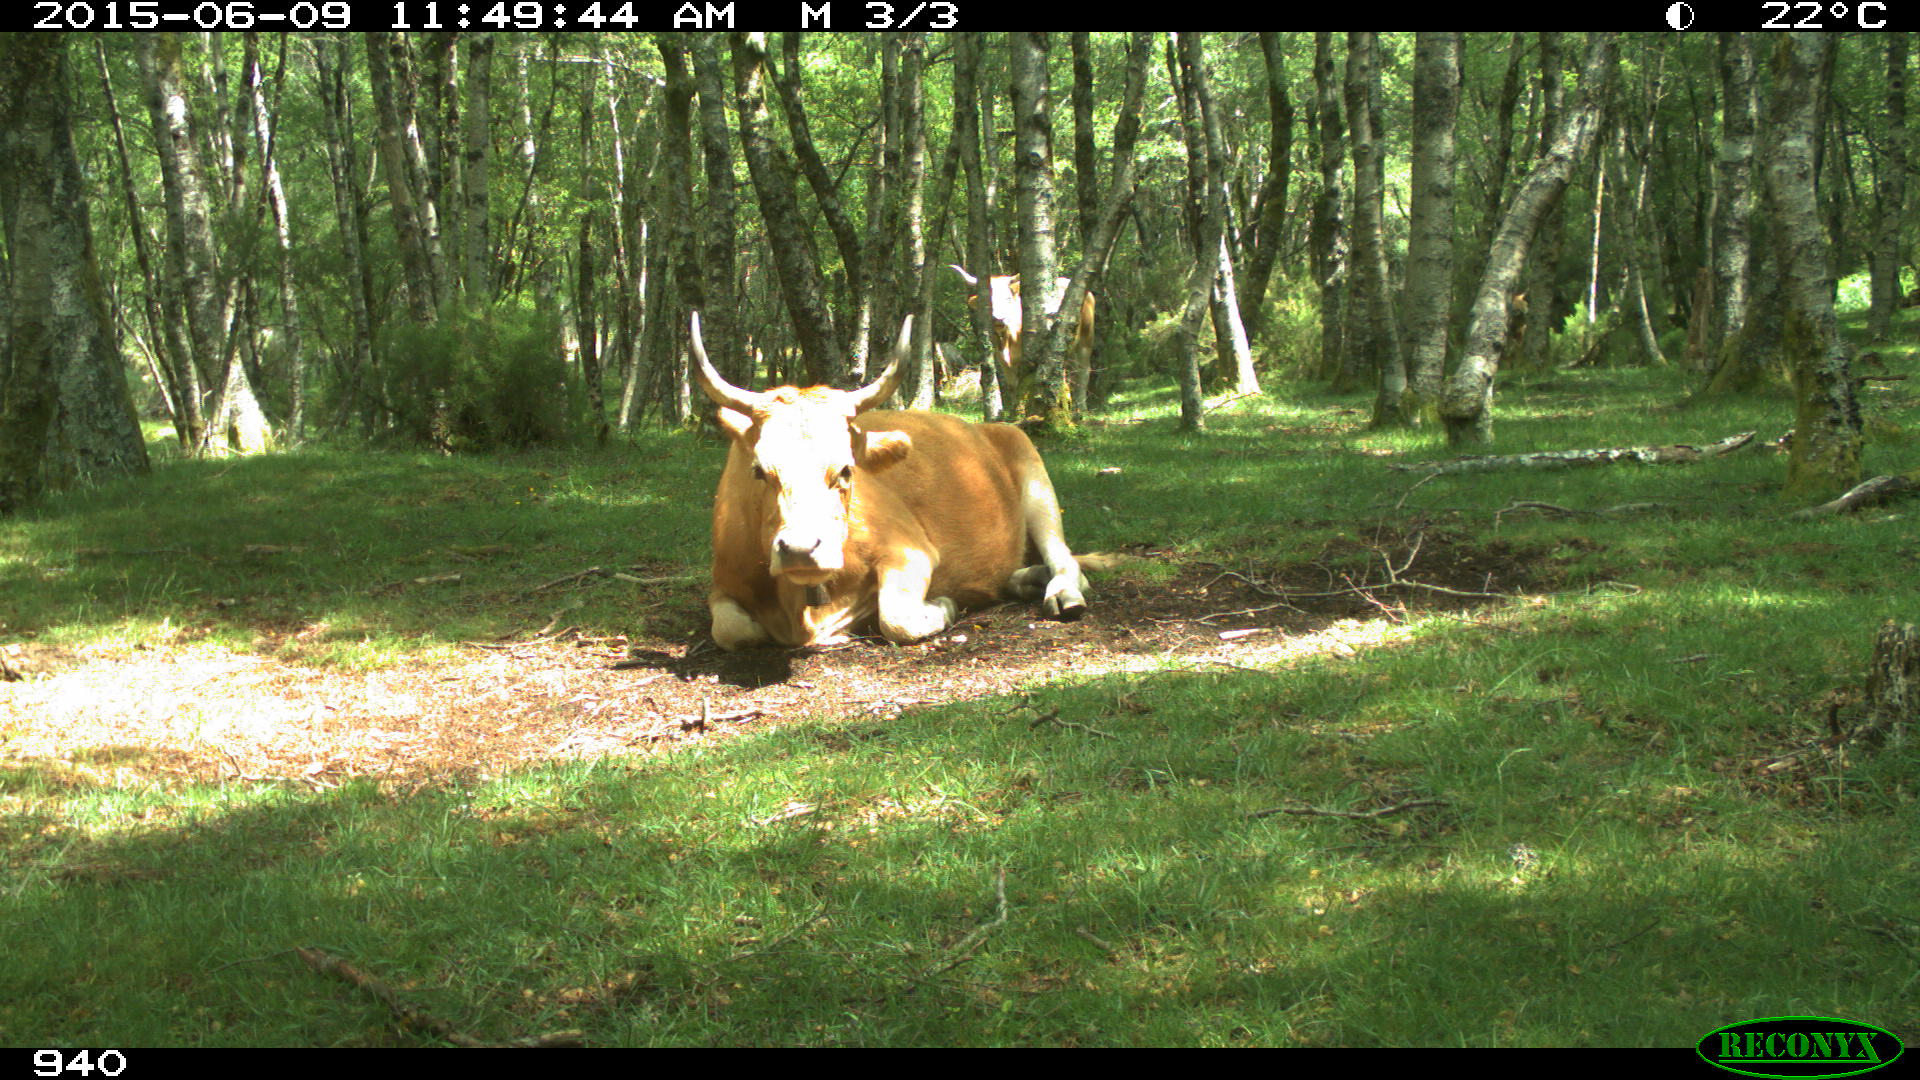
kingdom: Animalia
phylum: Chordata
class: Mammalia
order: Artiodactyla
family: Bovidae
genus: Bos
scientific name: Bos taurus
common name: Domesticated cattle
